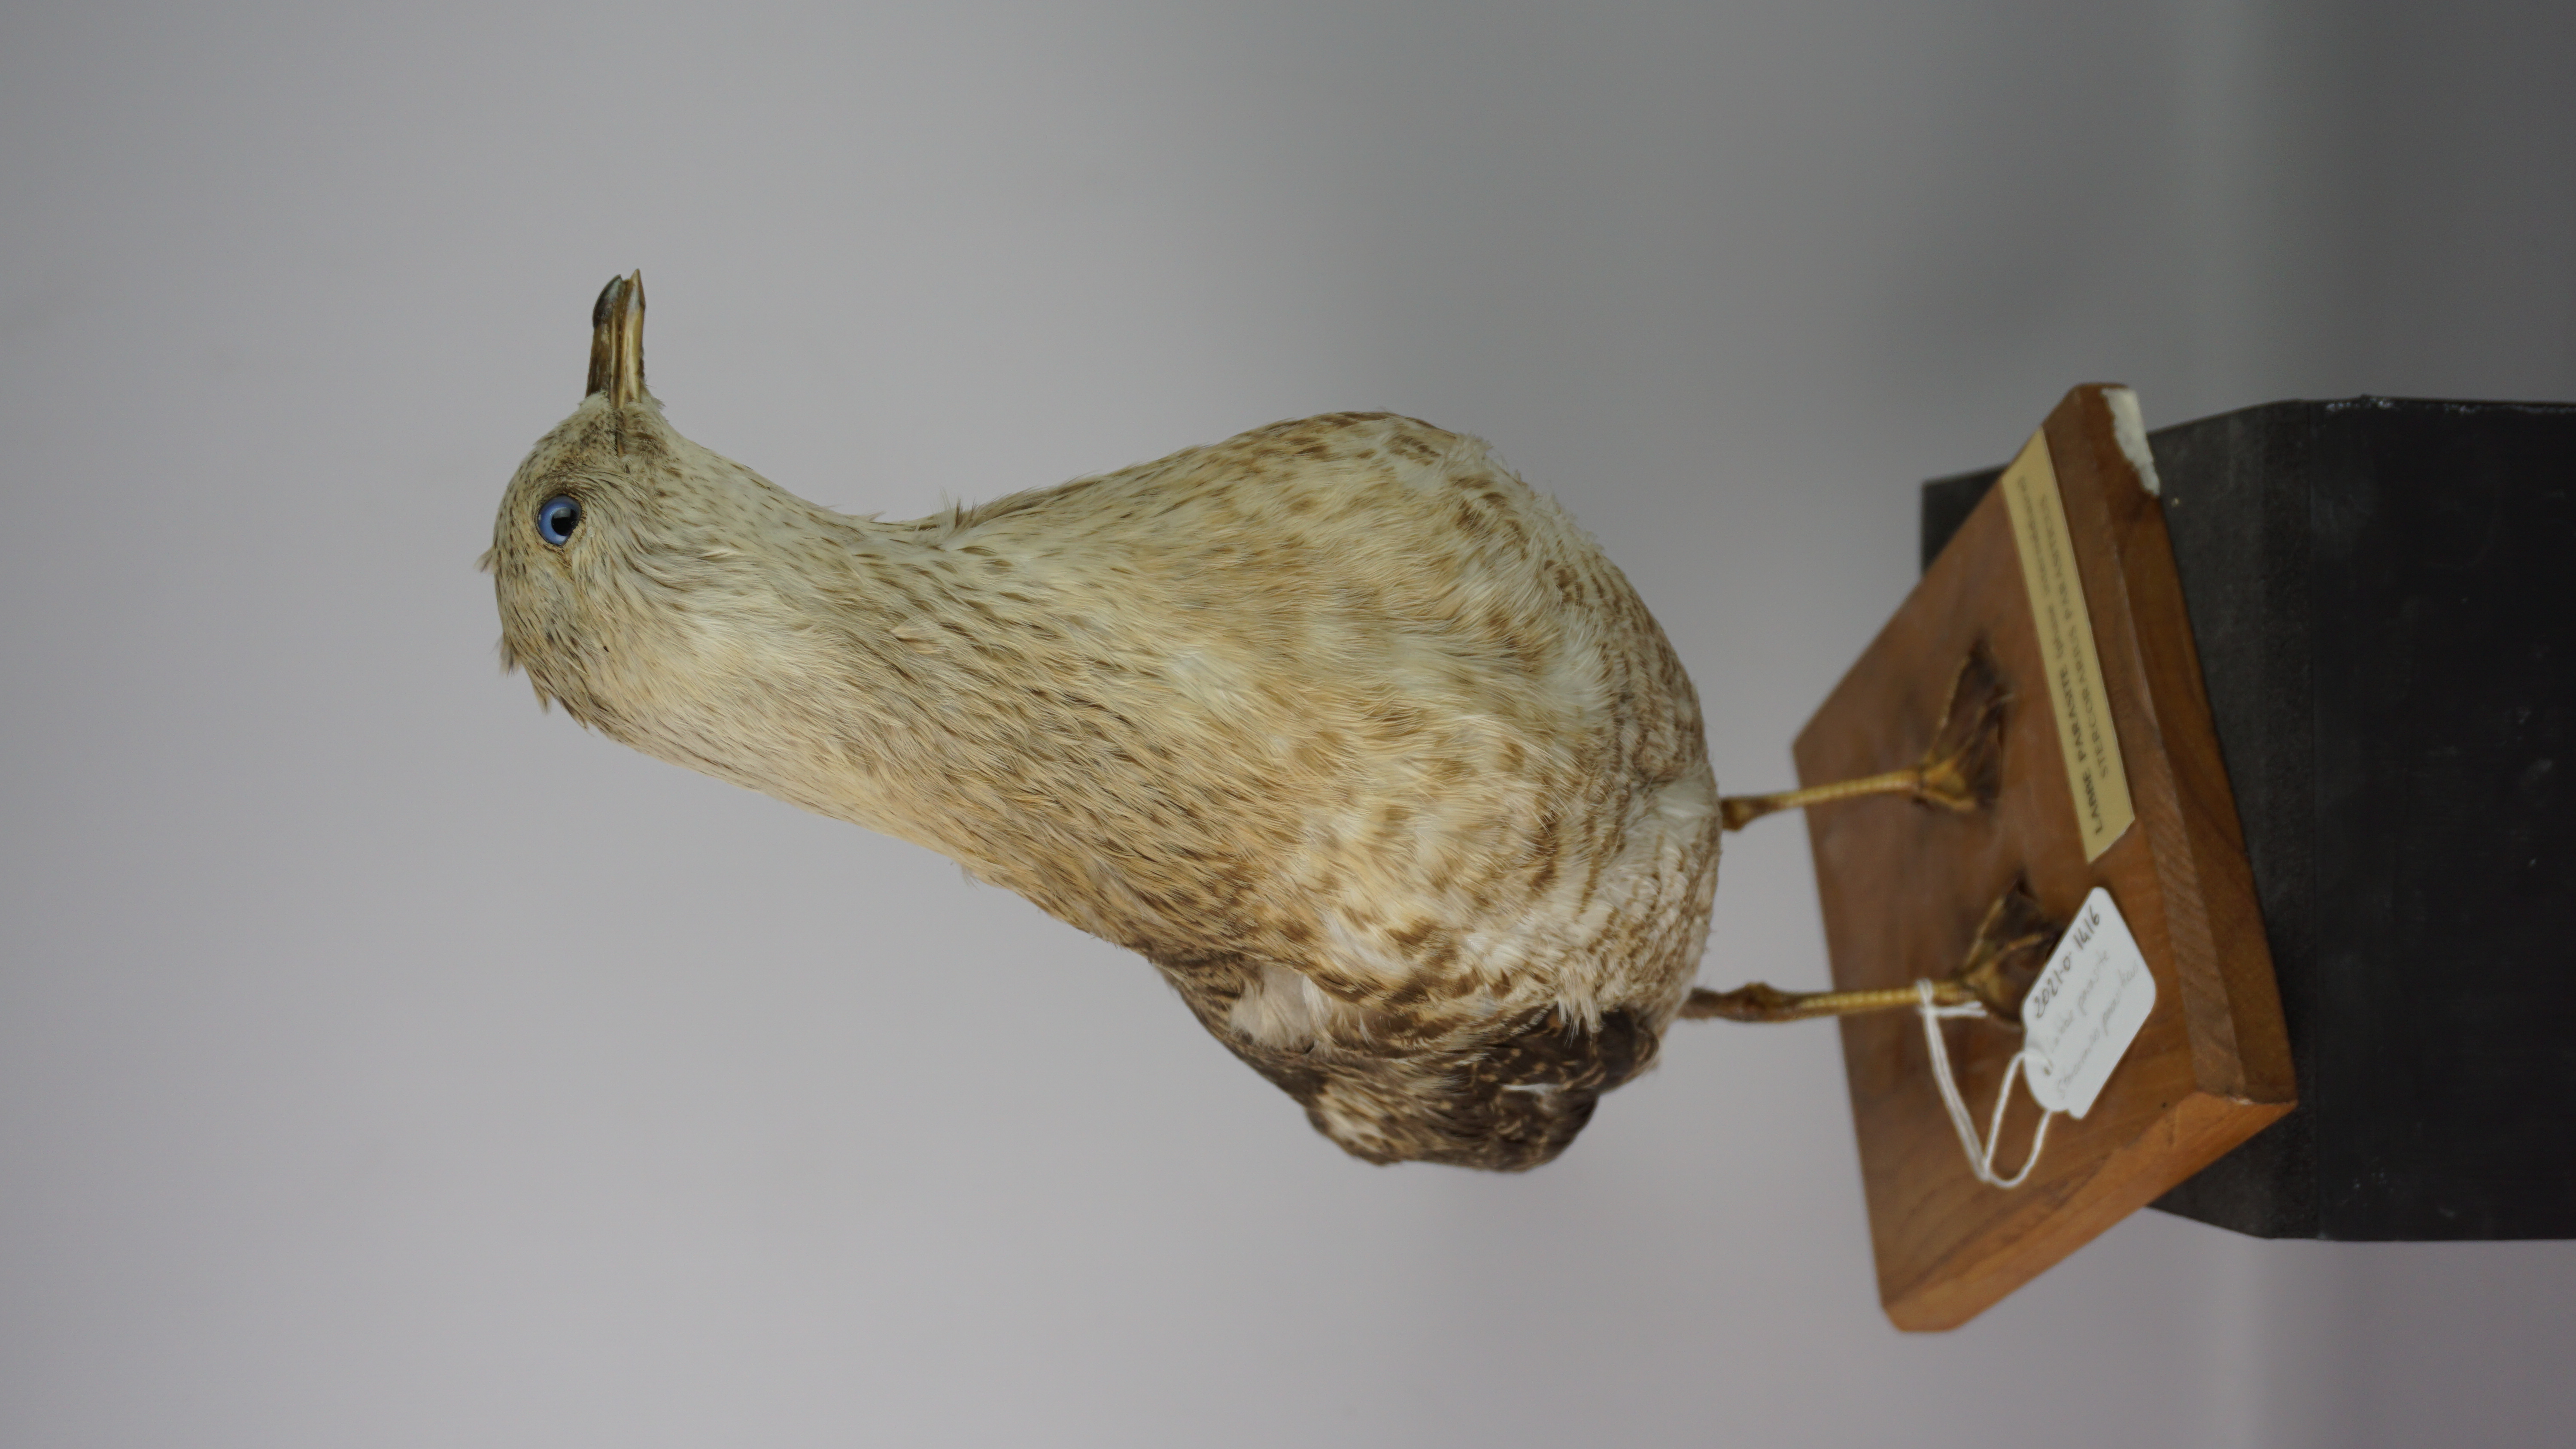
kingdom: Animalia
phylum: Chordata
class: Aves
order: Charadriiformes
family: Stercorariidae
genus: Stercorarius
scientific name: Stercorarius parasiticus
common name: Parasitic jaeger
